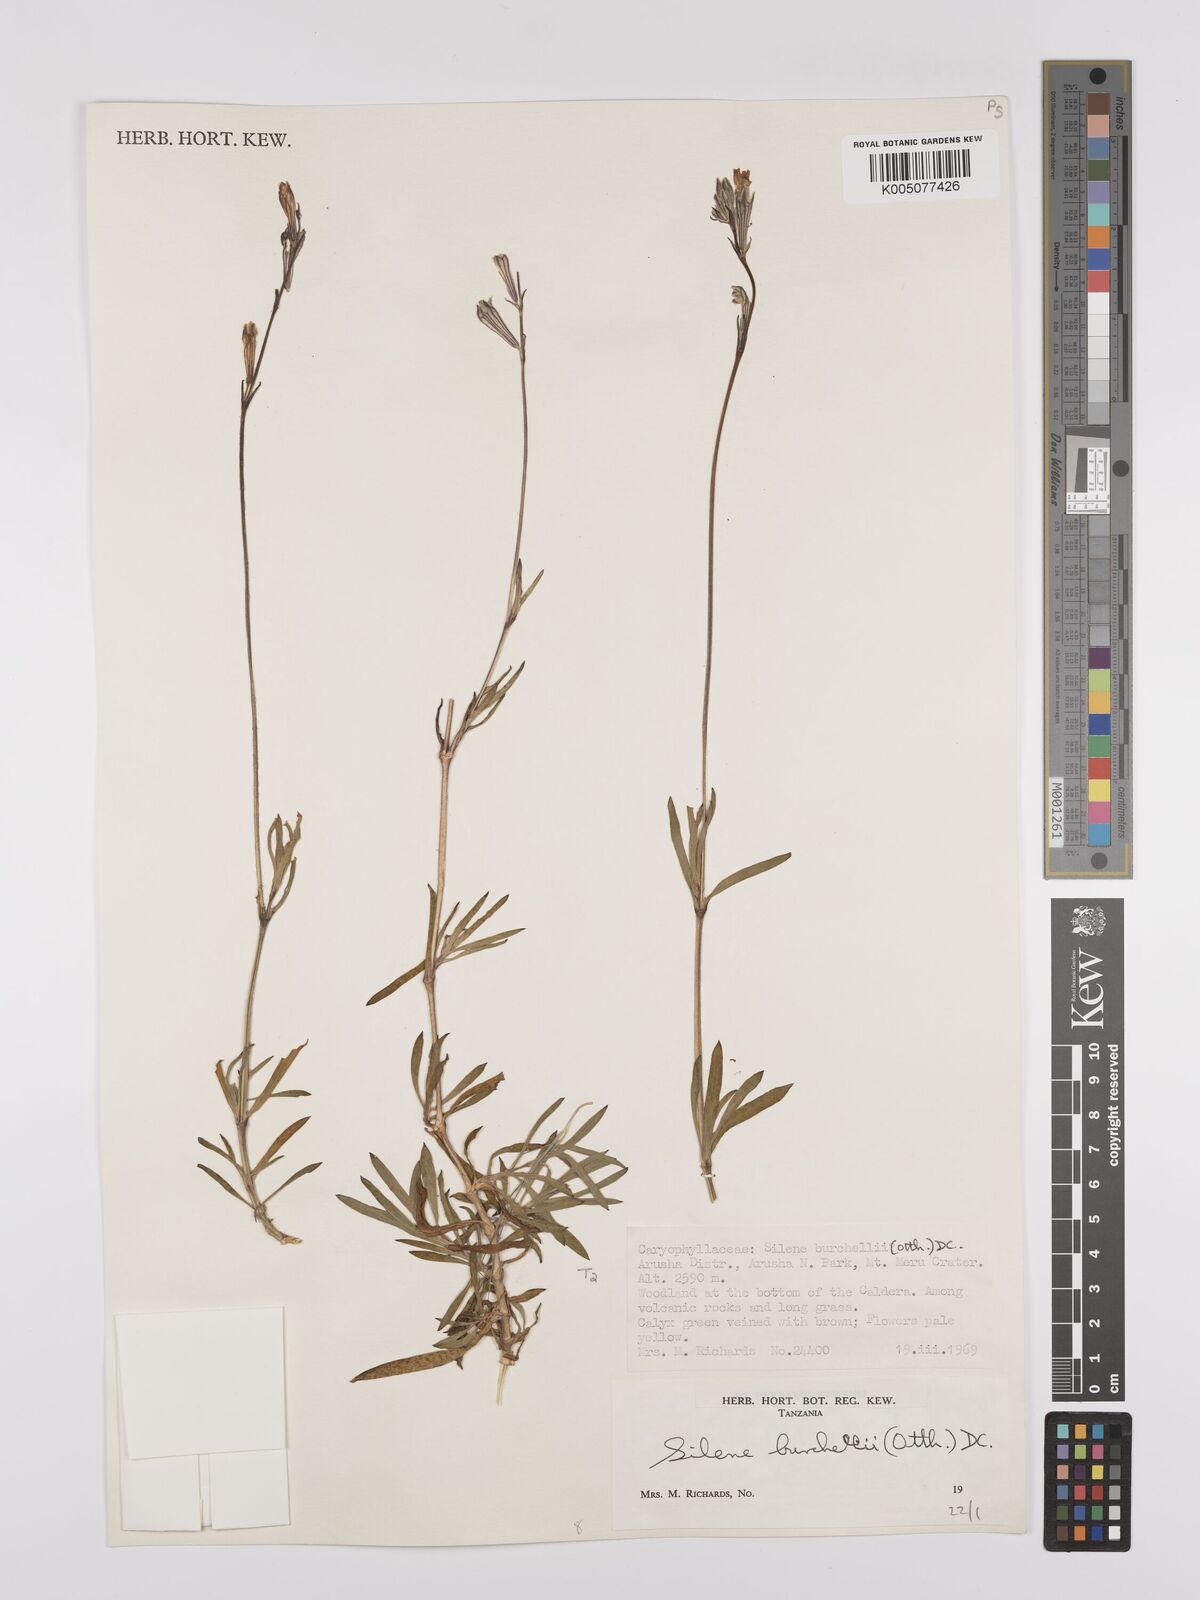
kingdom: Plantae
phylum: Tracheophyta
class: Magnoliopsida
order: Caryophyllales
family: Caryophyllaceae
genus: Silene
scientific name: Silene burchellii
